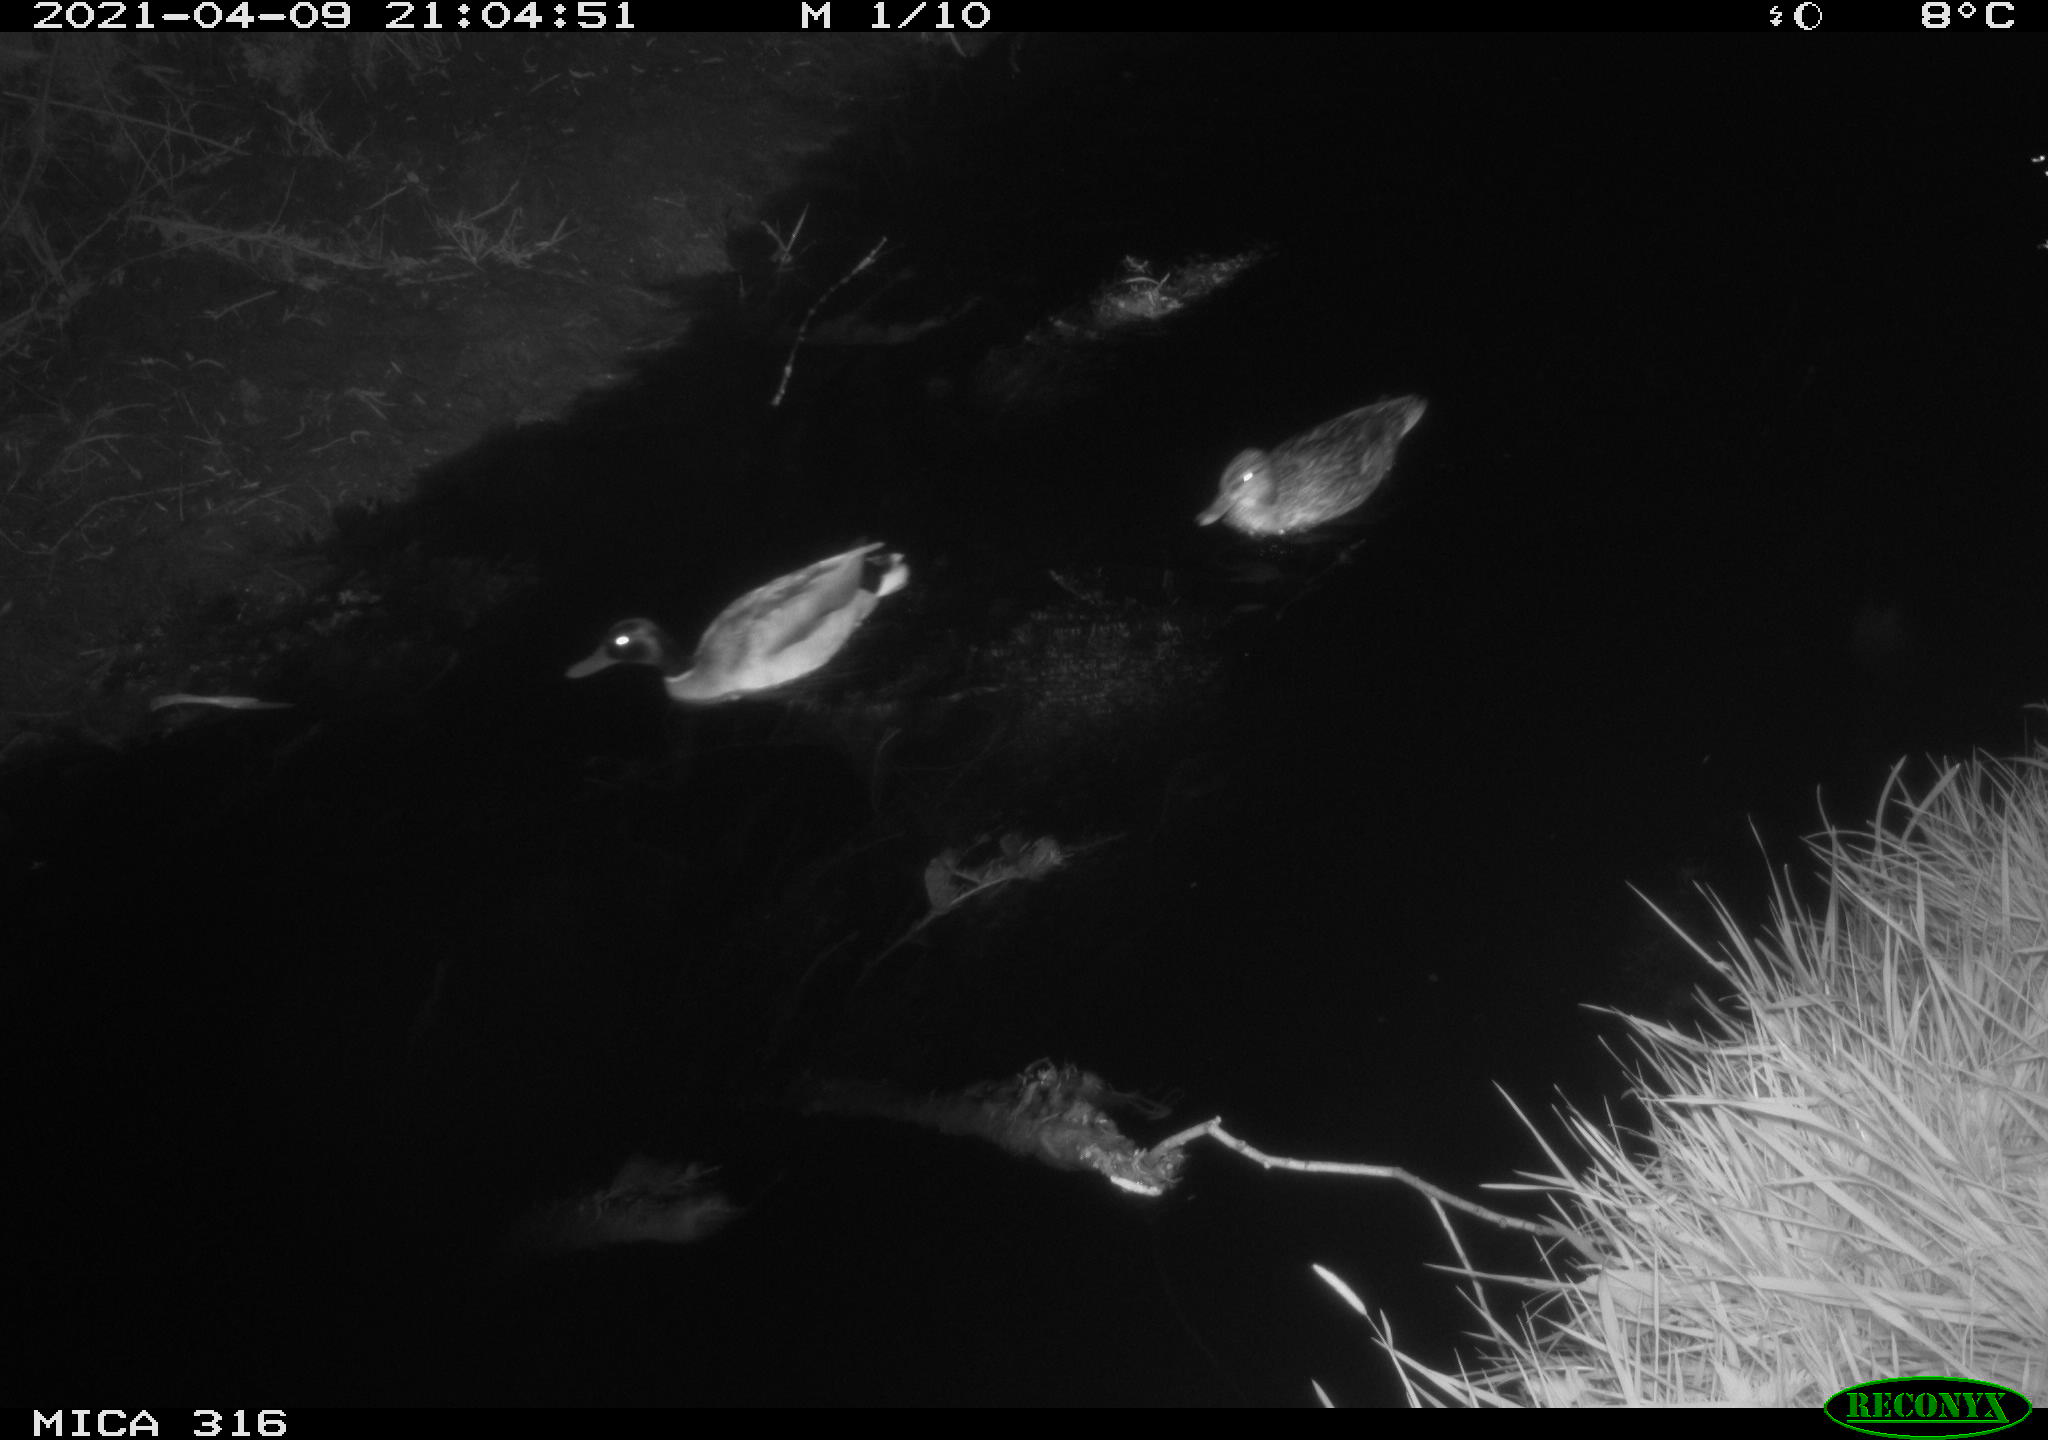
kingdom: Animalia
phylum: Chordata
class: Aves
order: Anseriformes
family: Anatidae
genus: Anas
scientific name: Anas platyrhynchos
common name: Mallard
